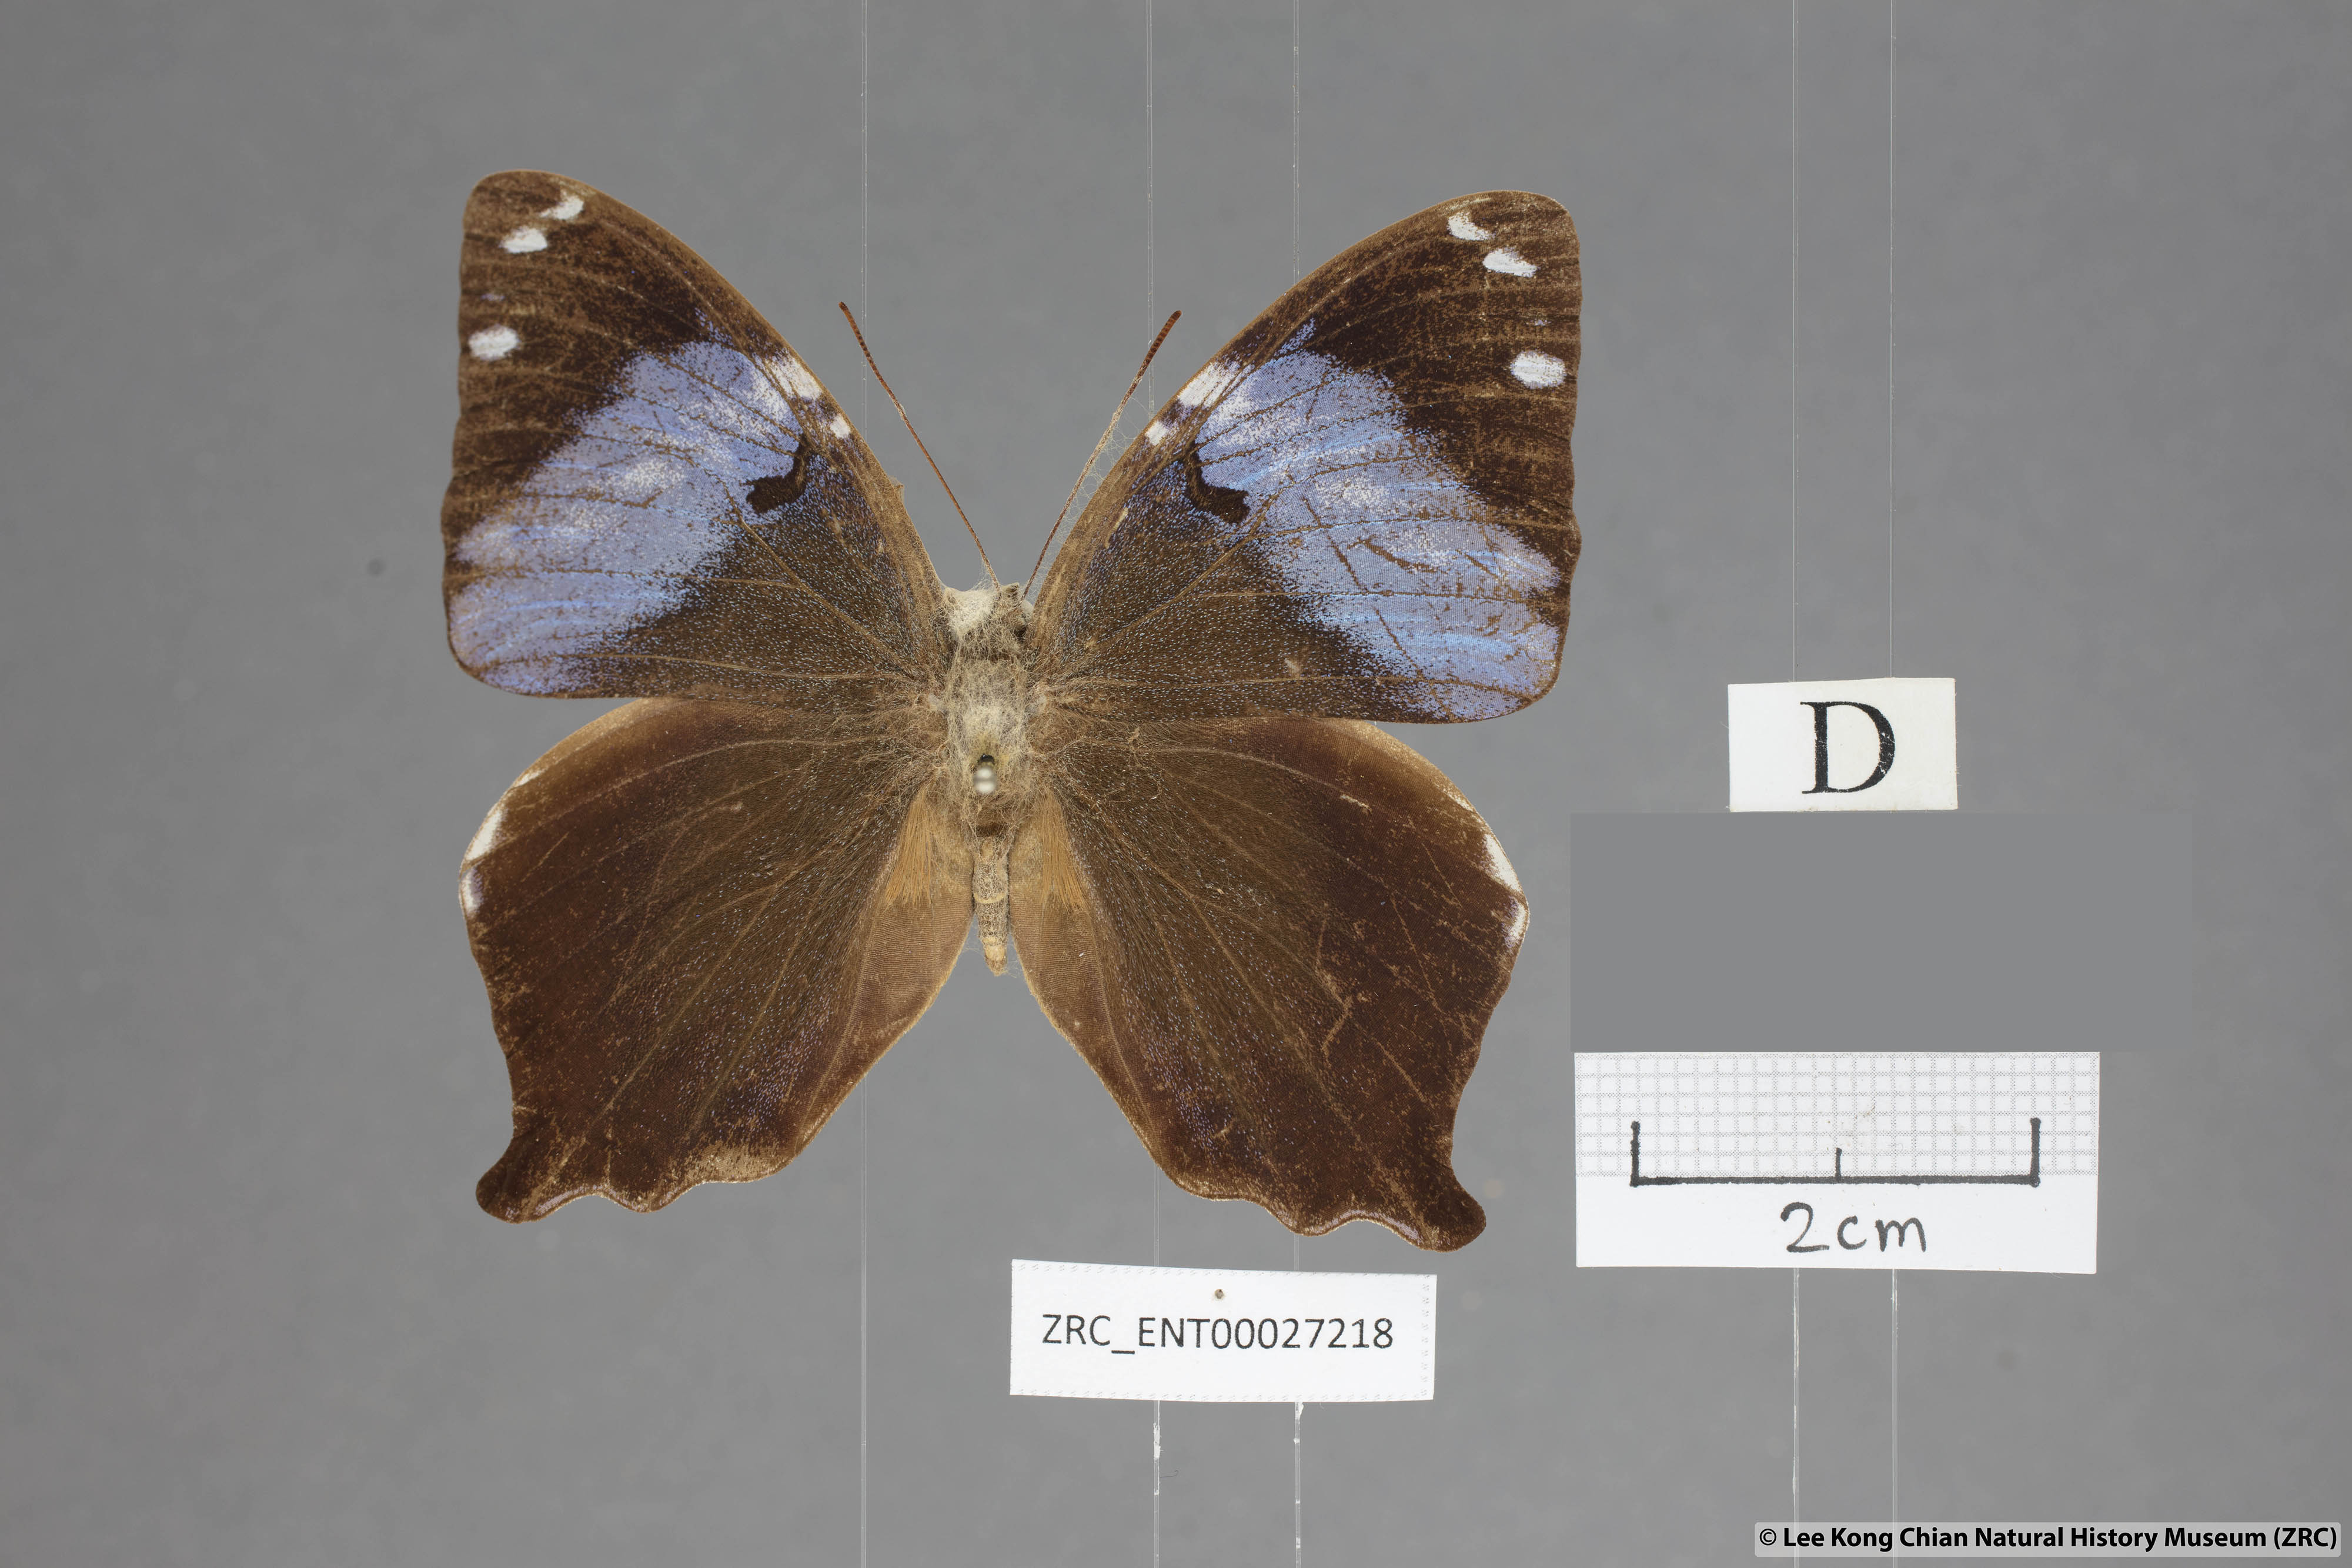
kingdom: Animalia
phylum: Arthropoda
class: Insecta
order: Lepidoptera
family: Nymphalidae
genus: Prothoe
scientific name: Prothoe
